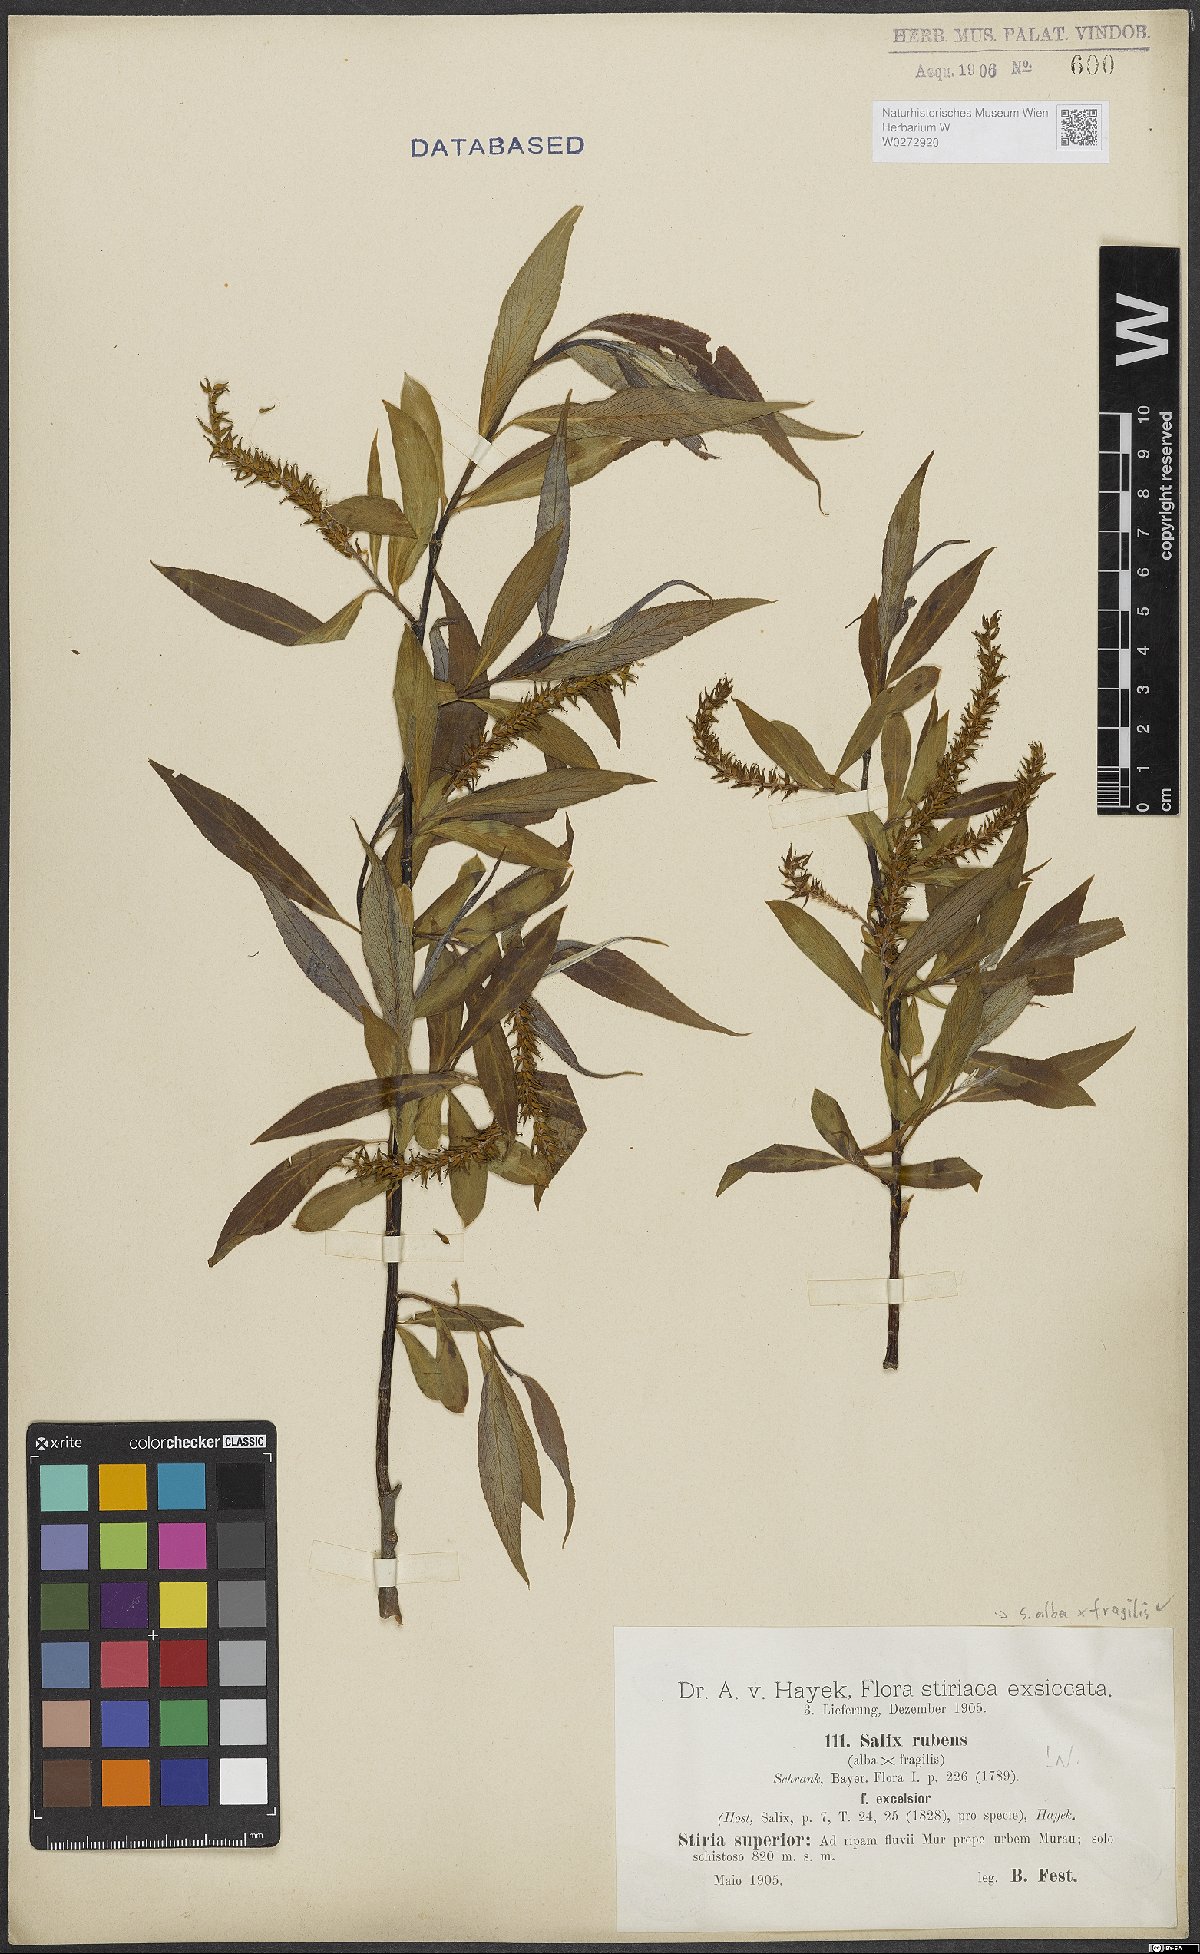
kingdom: Plantae
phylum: Tracheophyta
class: Magnoliopsida
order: Malpighiales
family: Salicaceae
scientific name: Salicaceae
